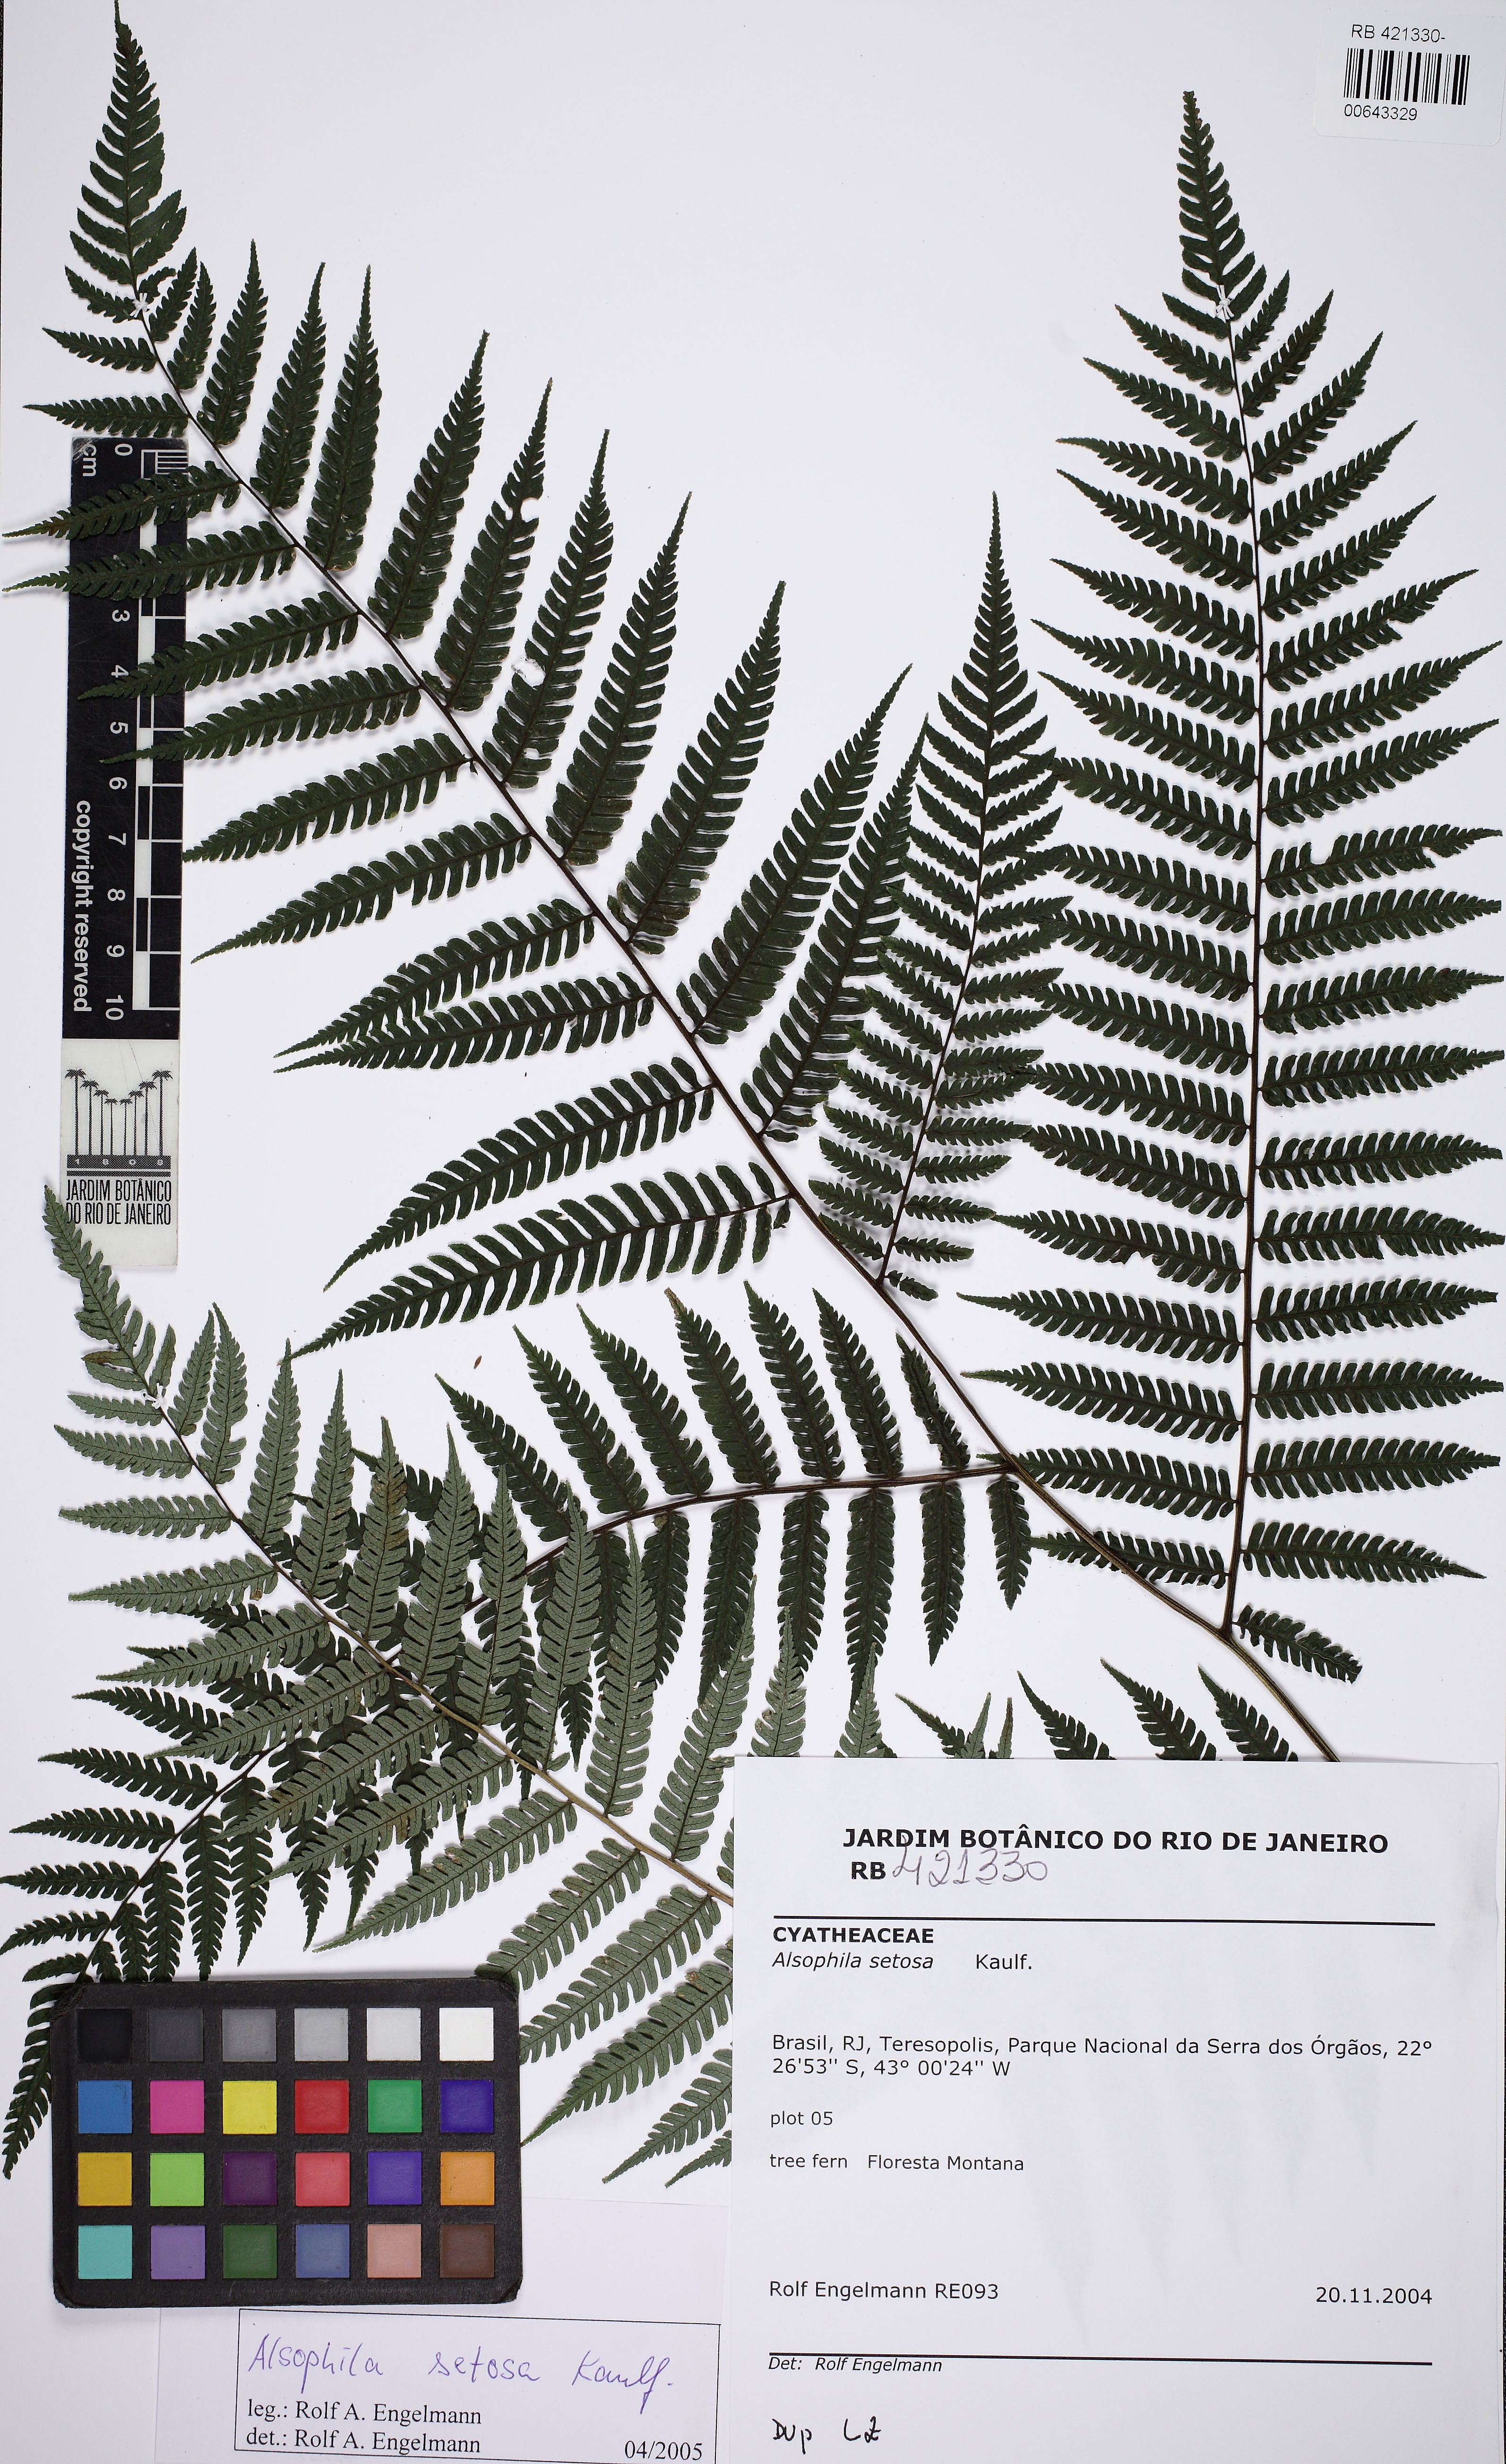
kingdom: Plantae
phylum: Tracheophyta
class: Polypodiopsida
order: Cyatheales
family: Cyatheaceae
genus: Alsophila
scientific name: Alsophila setosa
